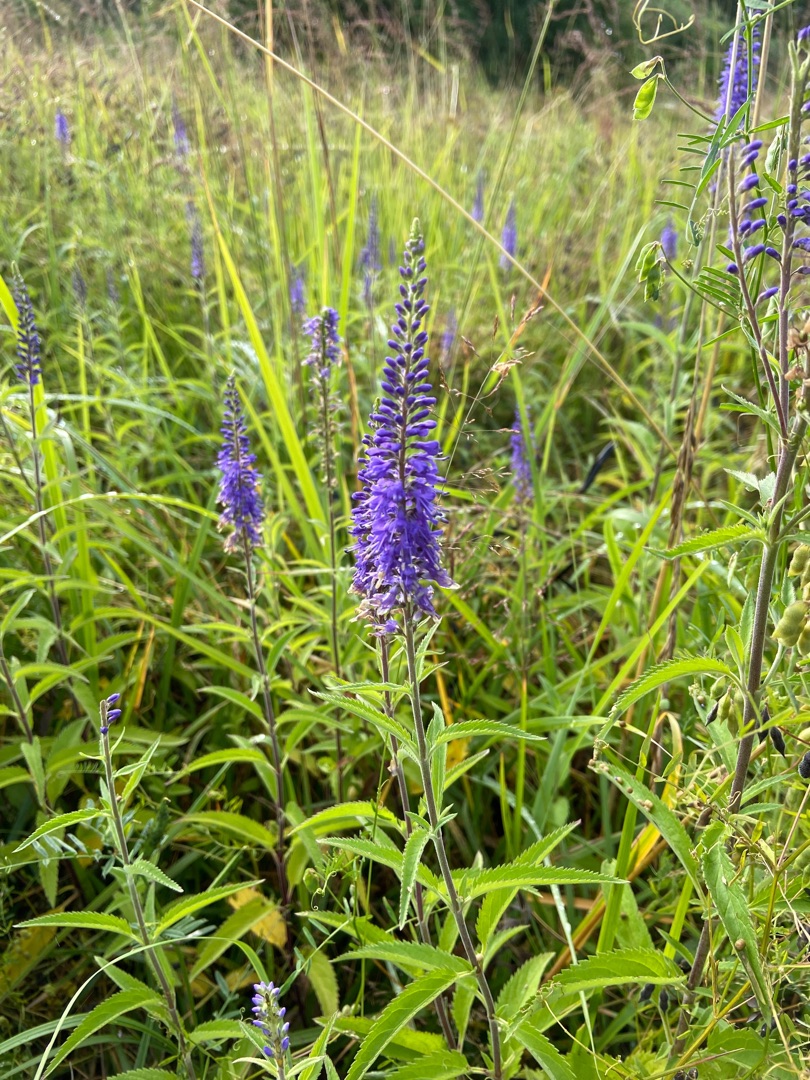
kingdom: Plantae
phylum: Tracheophyta
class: Magnoliopsida
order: Lamiales
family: Plantaginaceae
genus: Veronica
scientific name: Veronica longifolia
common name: Langbladet ærenpris
